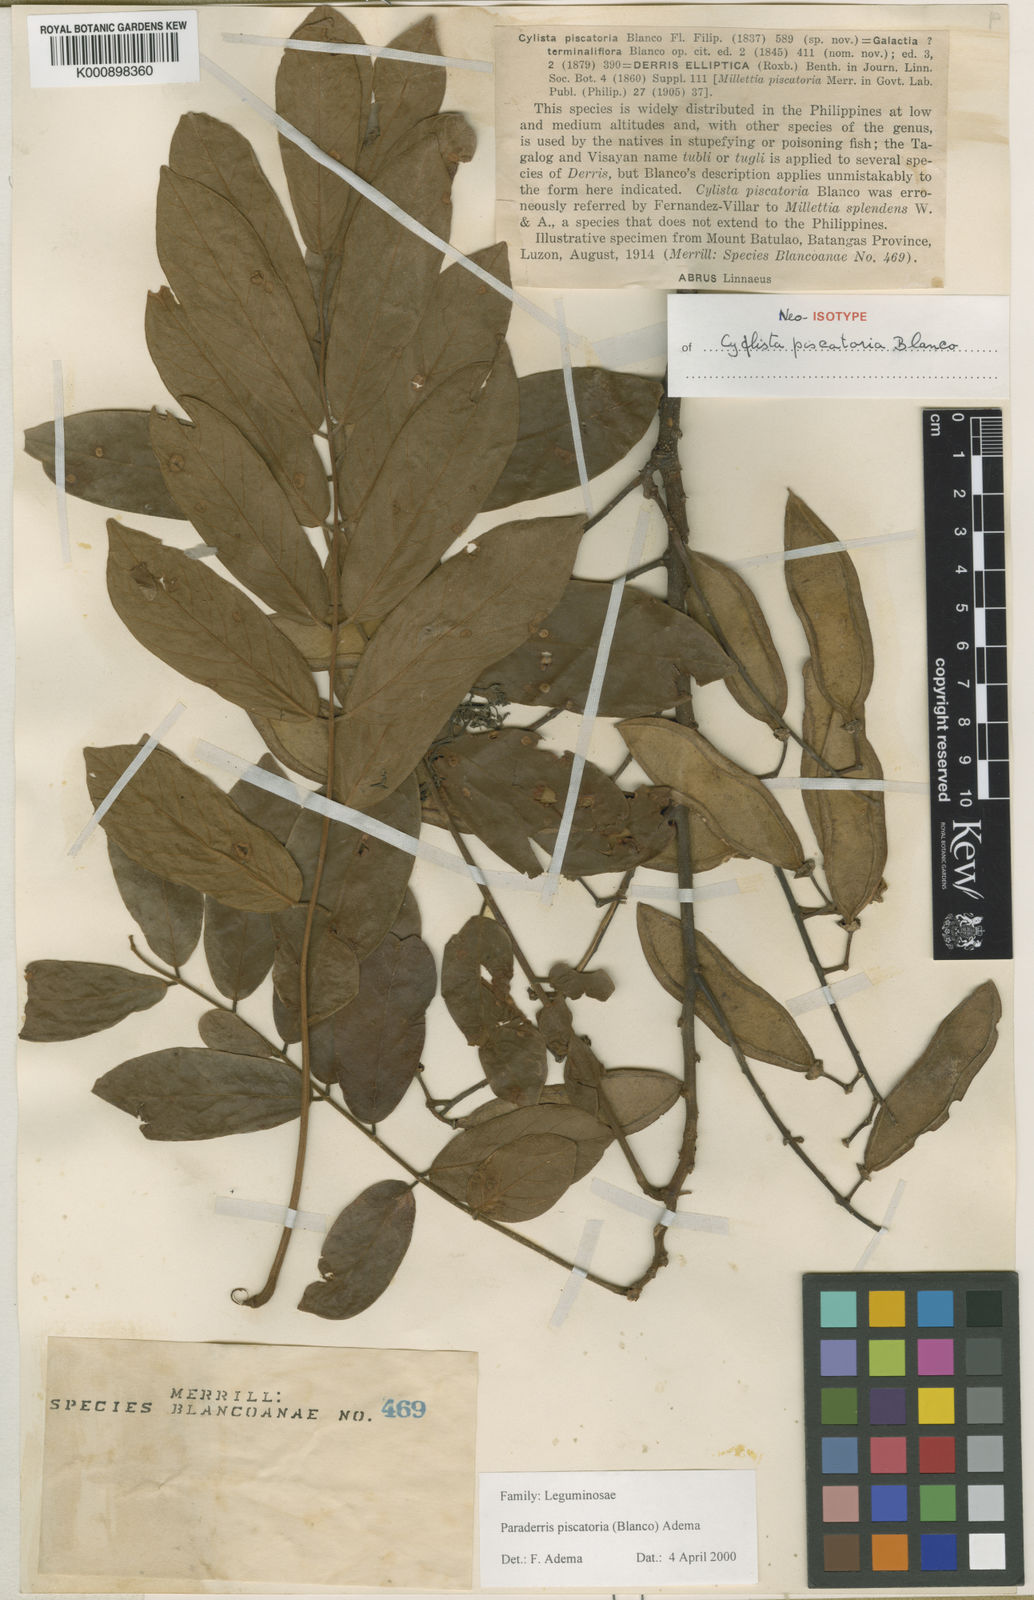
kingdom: Plantae
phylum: Tracheophyta
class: Magnoliopsida
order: Fabales
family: Fabaceae
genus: Derris
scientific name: Derris
